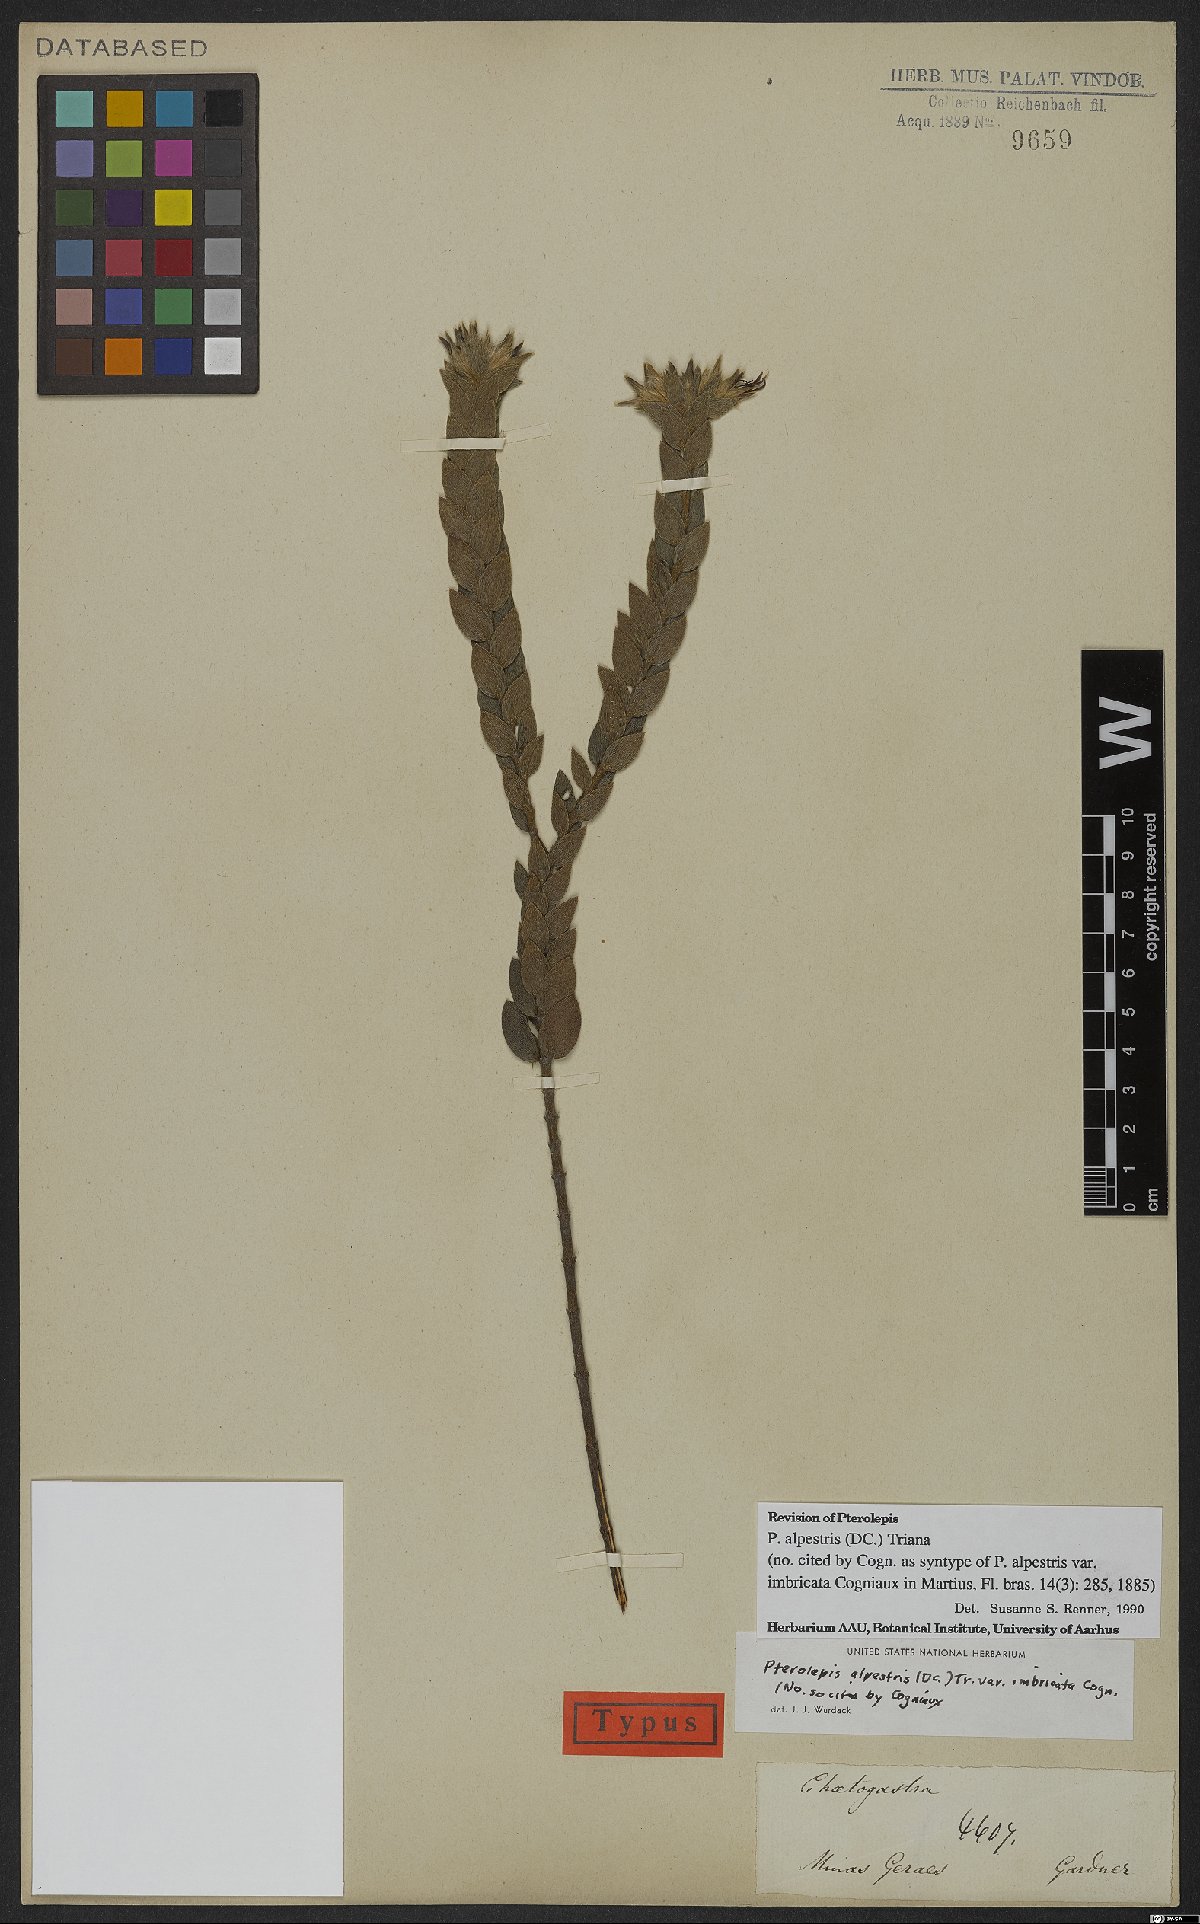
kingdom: Plantae
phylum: Tracheophyta
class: Magnoliopsida
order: Myrtales
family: Melastomataceae
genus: Pterolepis
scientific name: Pterolepis alpestris
